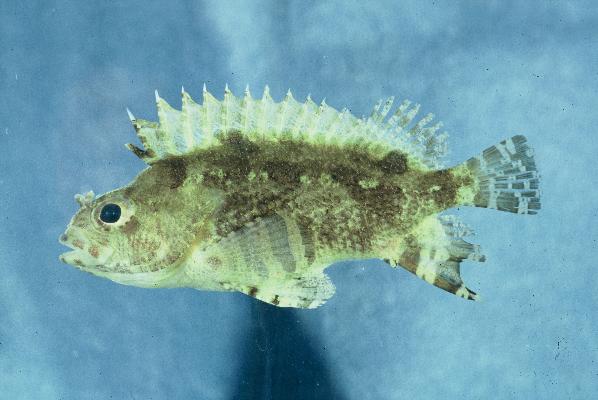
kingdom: Animalia
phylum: Chordata
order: Perciformes
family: Centrogenyidae
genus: Centrogenys
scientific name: Centrogenys vaigiensis
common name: False scorpionfish
